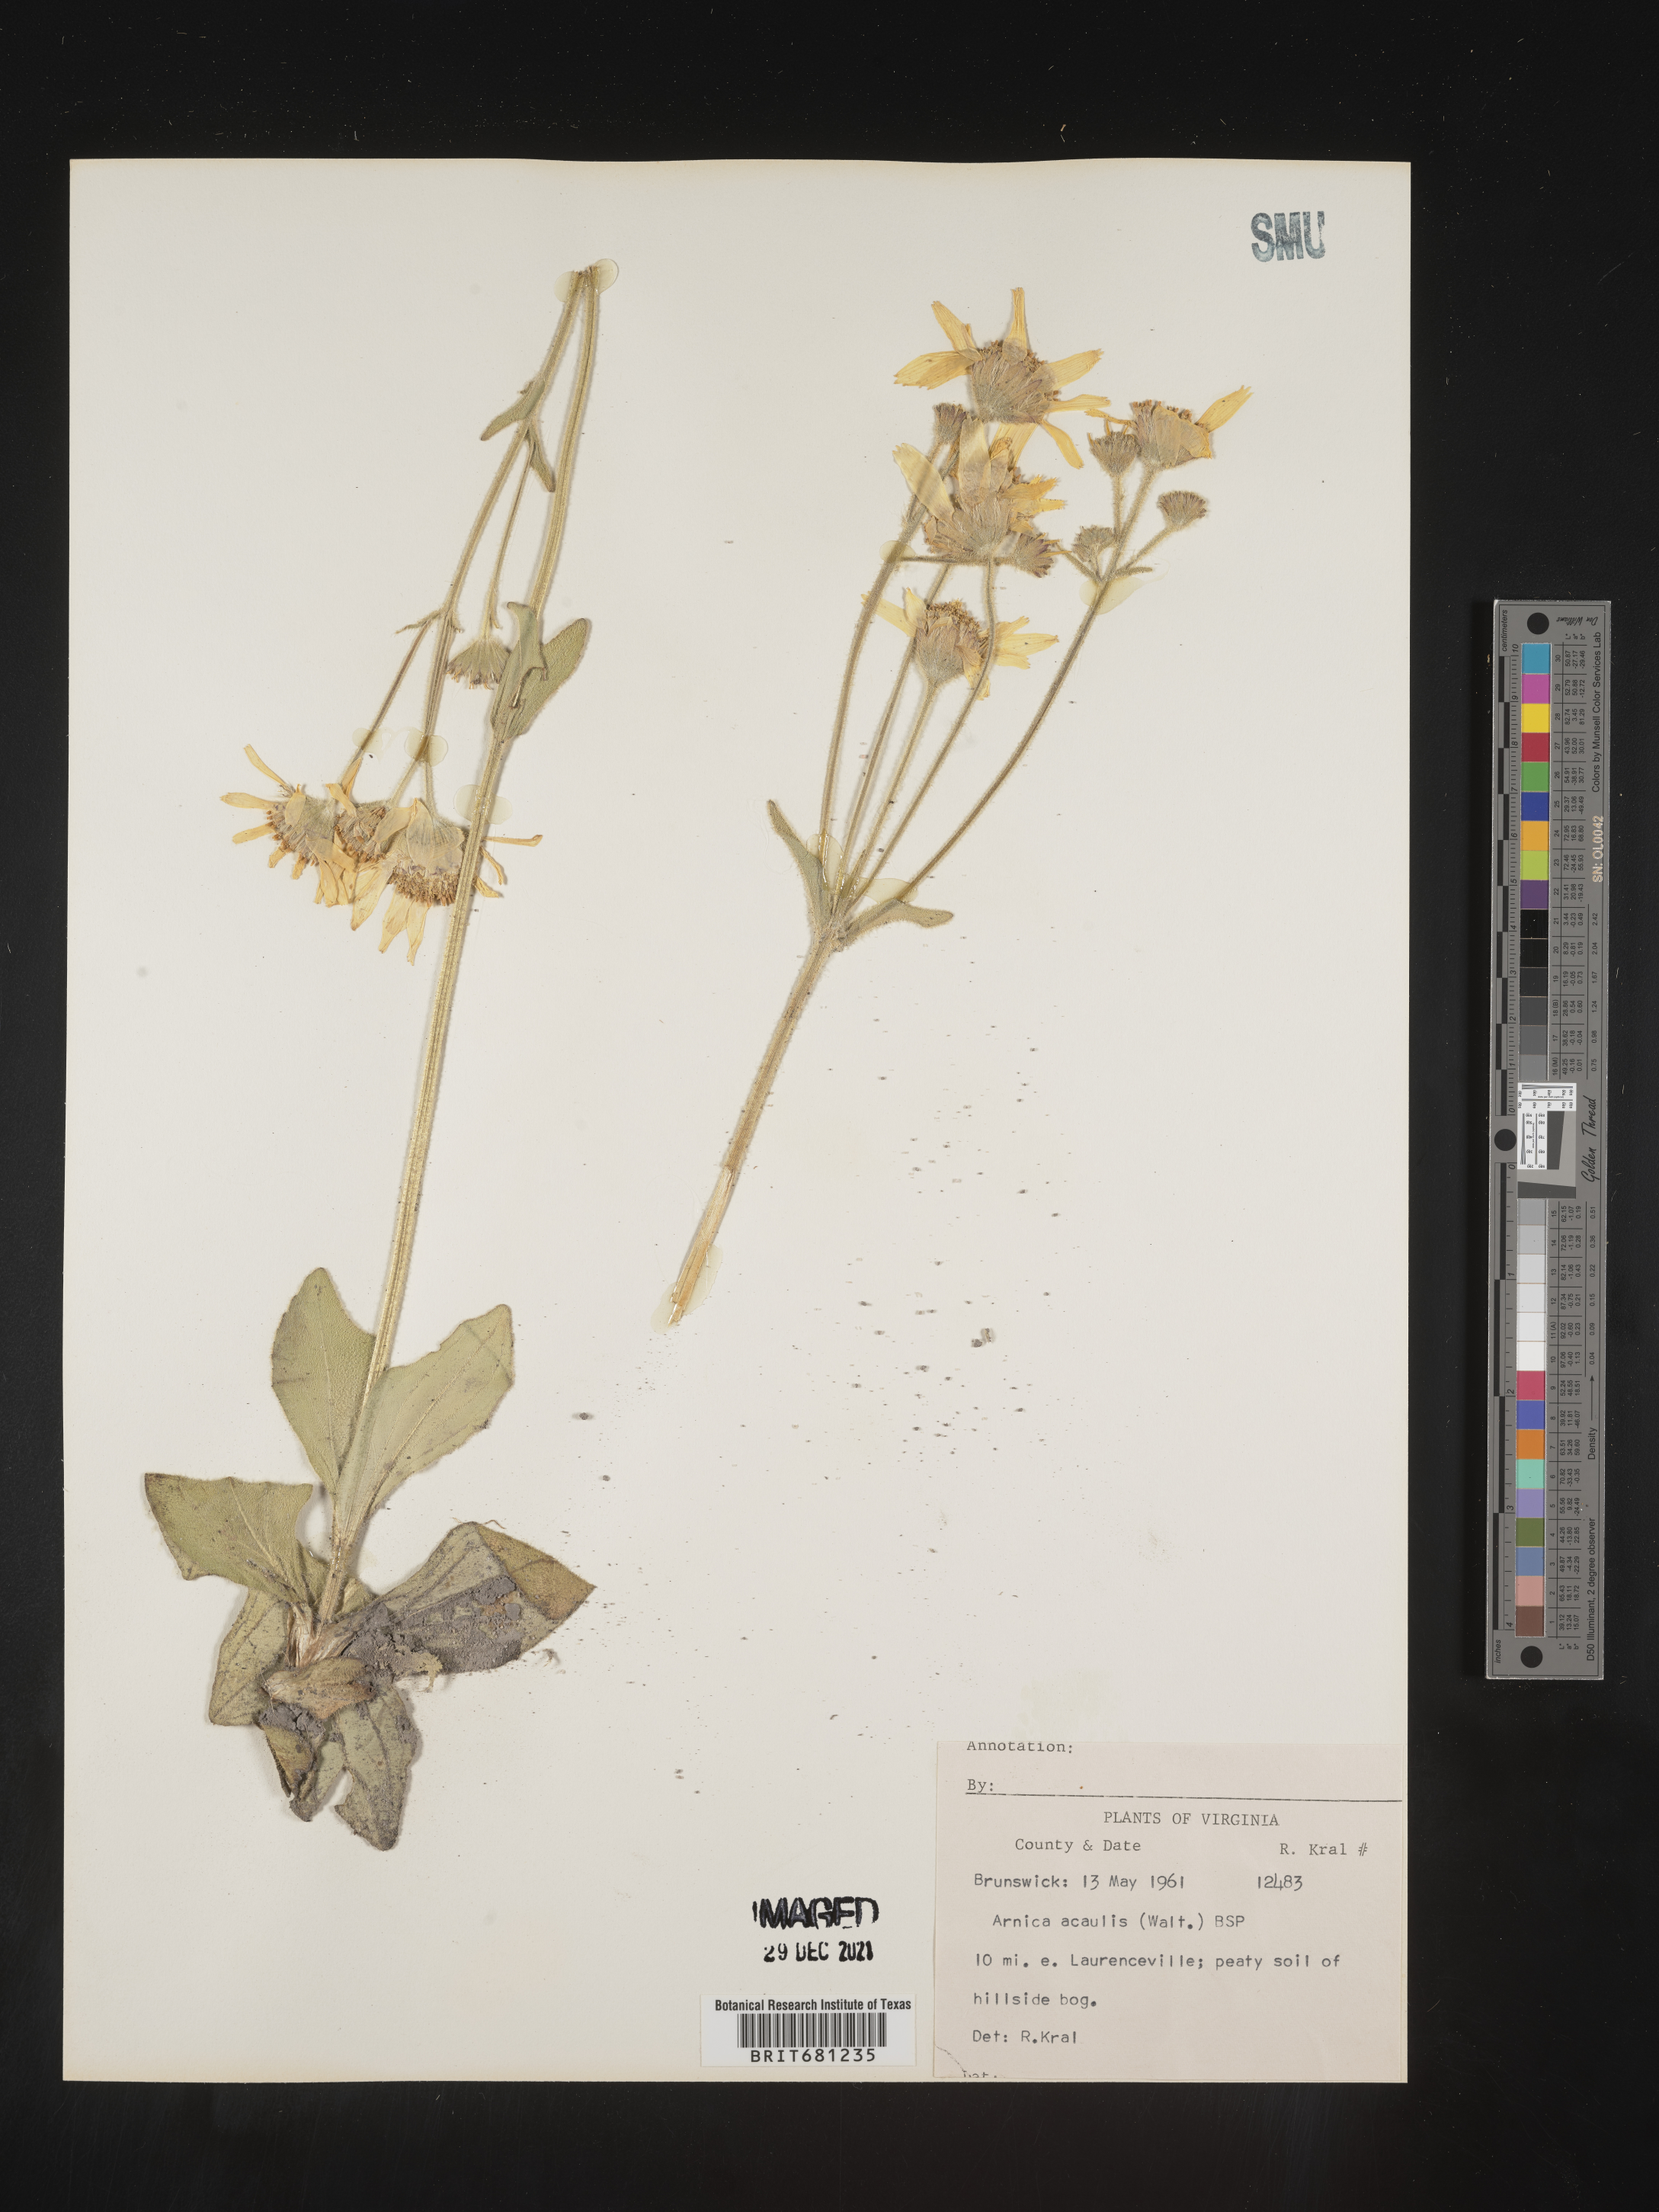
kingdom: Plantae
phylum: Tracheophyta
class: Magnoliopsida
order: Asterales
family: Asteraceae
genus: Arnica
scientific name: Arnica acaulis
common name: Common leopardbane
